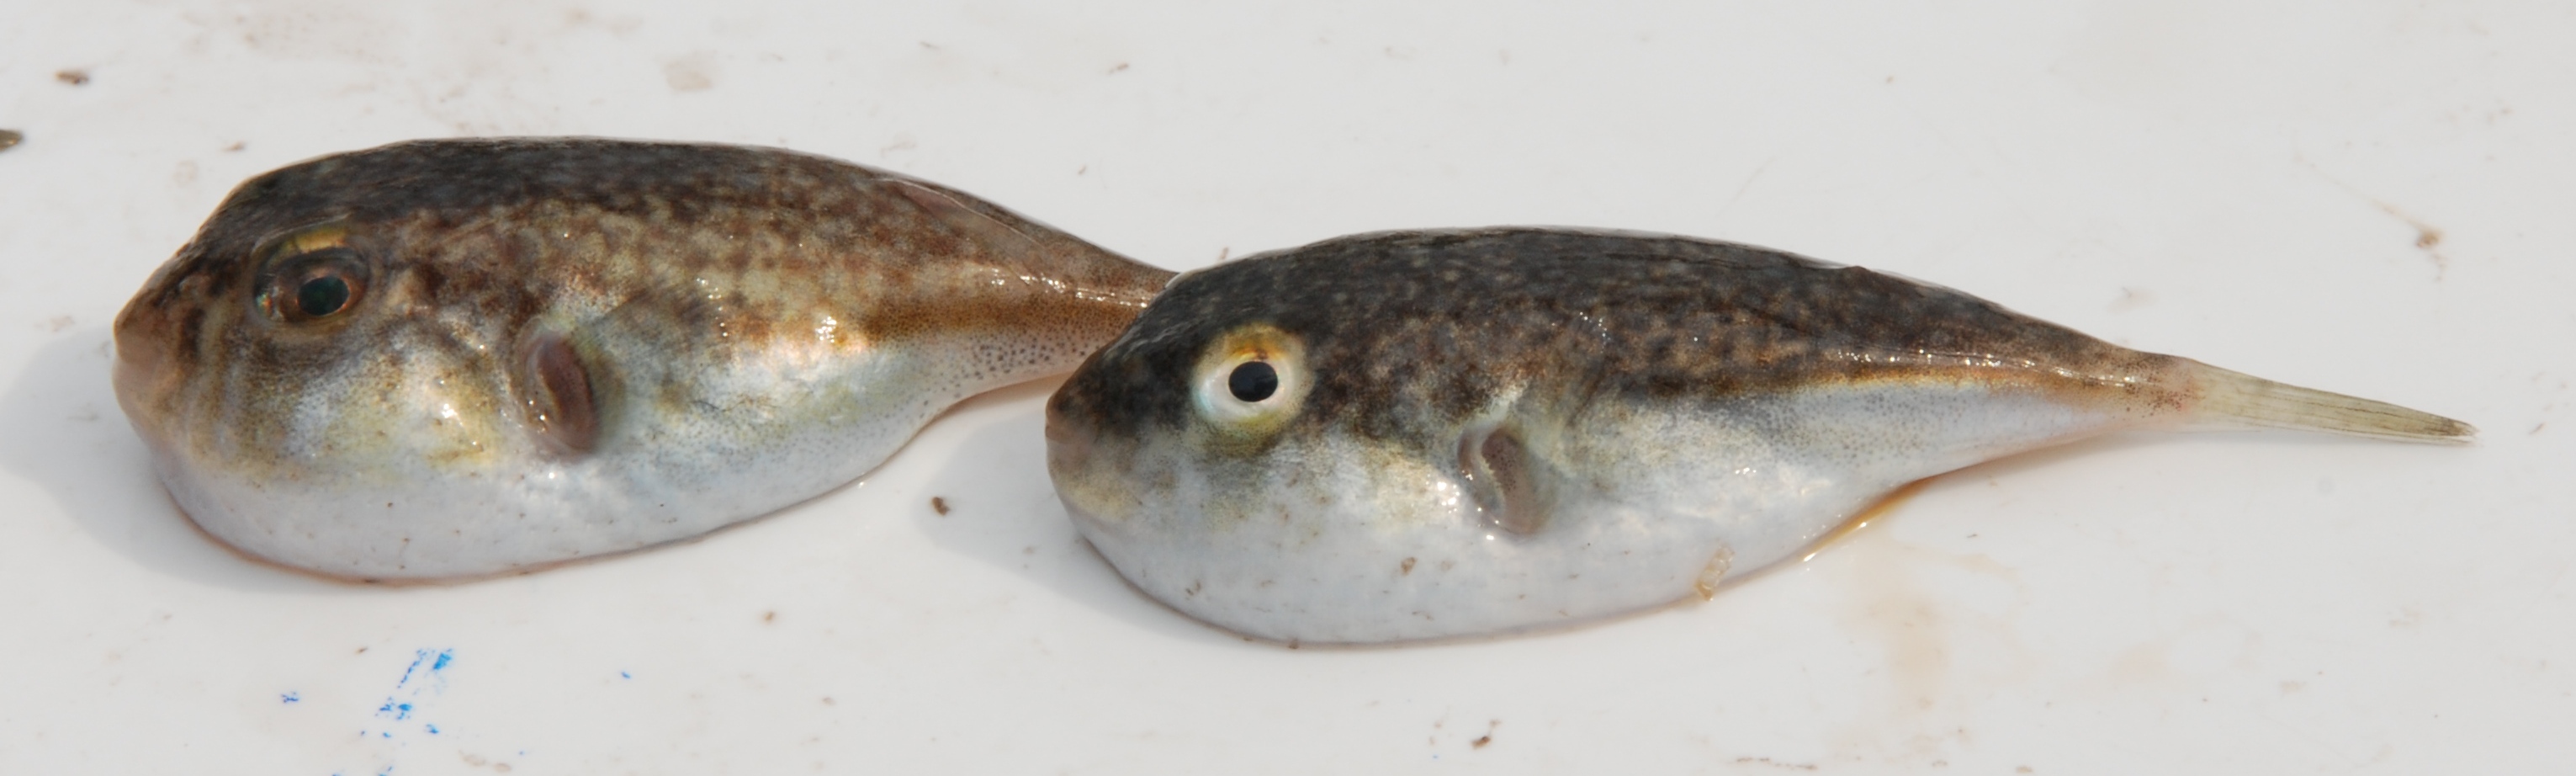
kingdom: Animalia
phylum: Chordata
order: Tetraodontiformes
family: Tetraodontidae
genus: Torquigener
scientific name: Torquigener flavimaculosus
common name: Studded pufferfish
